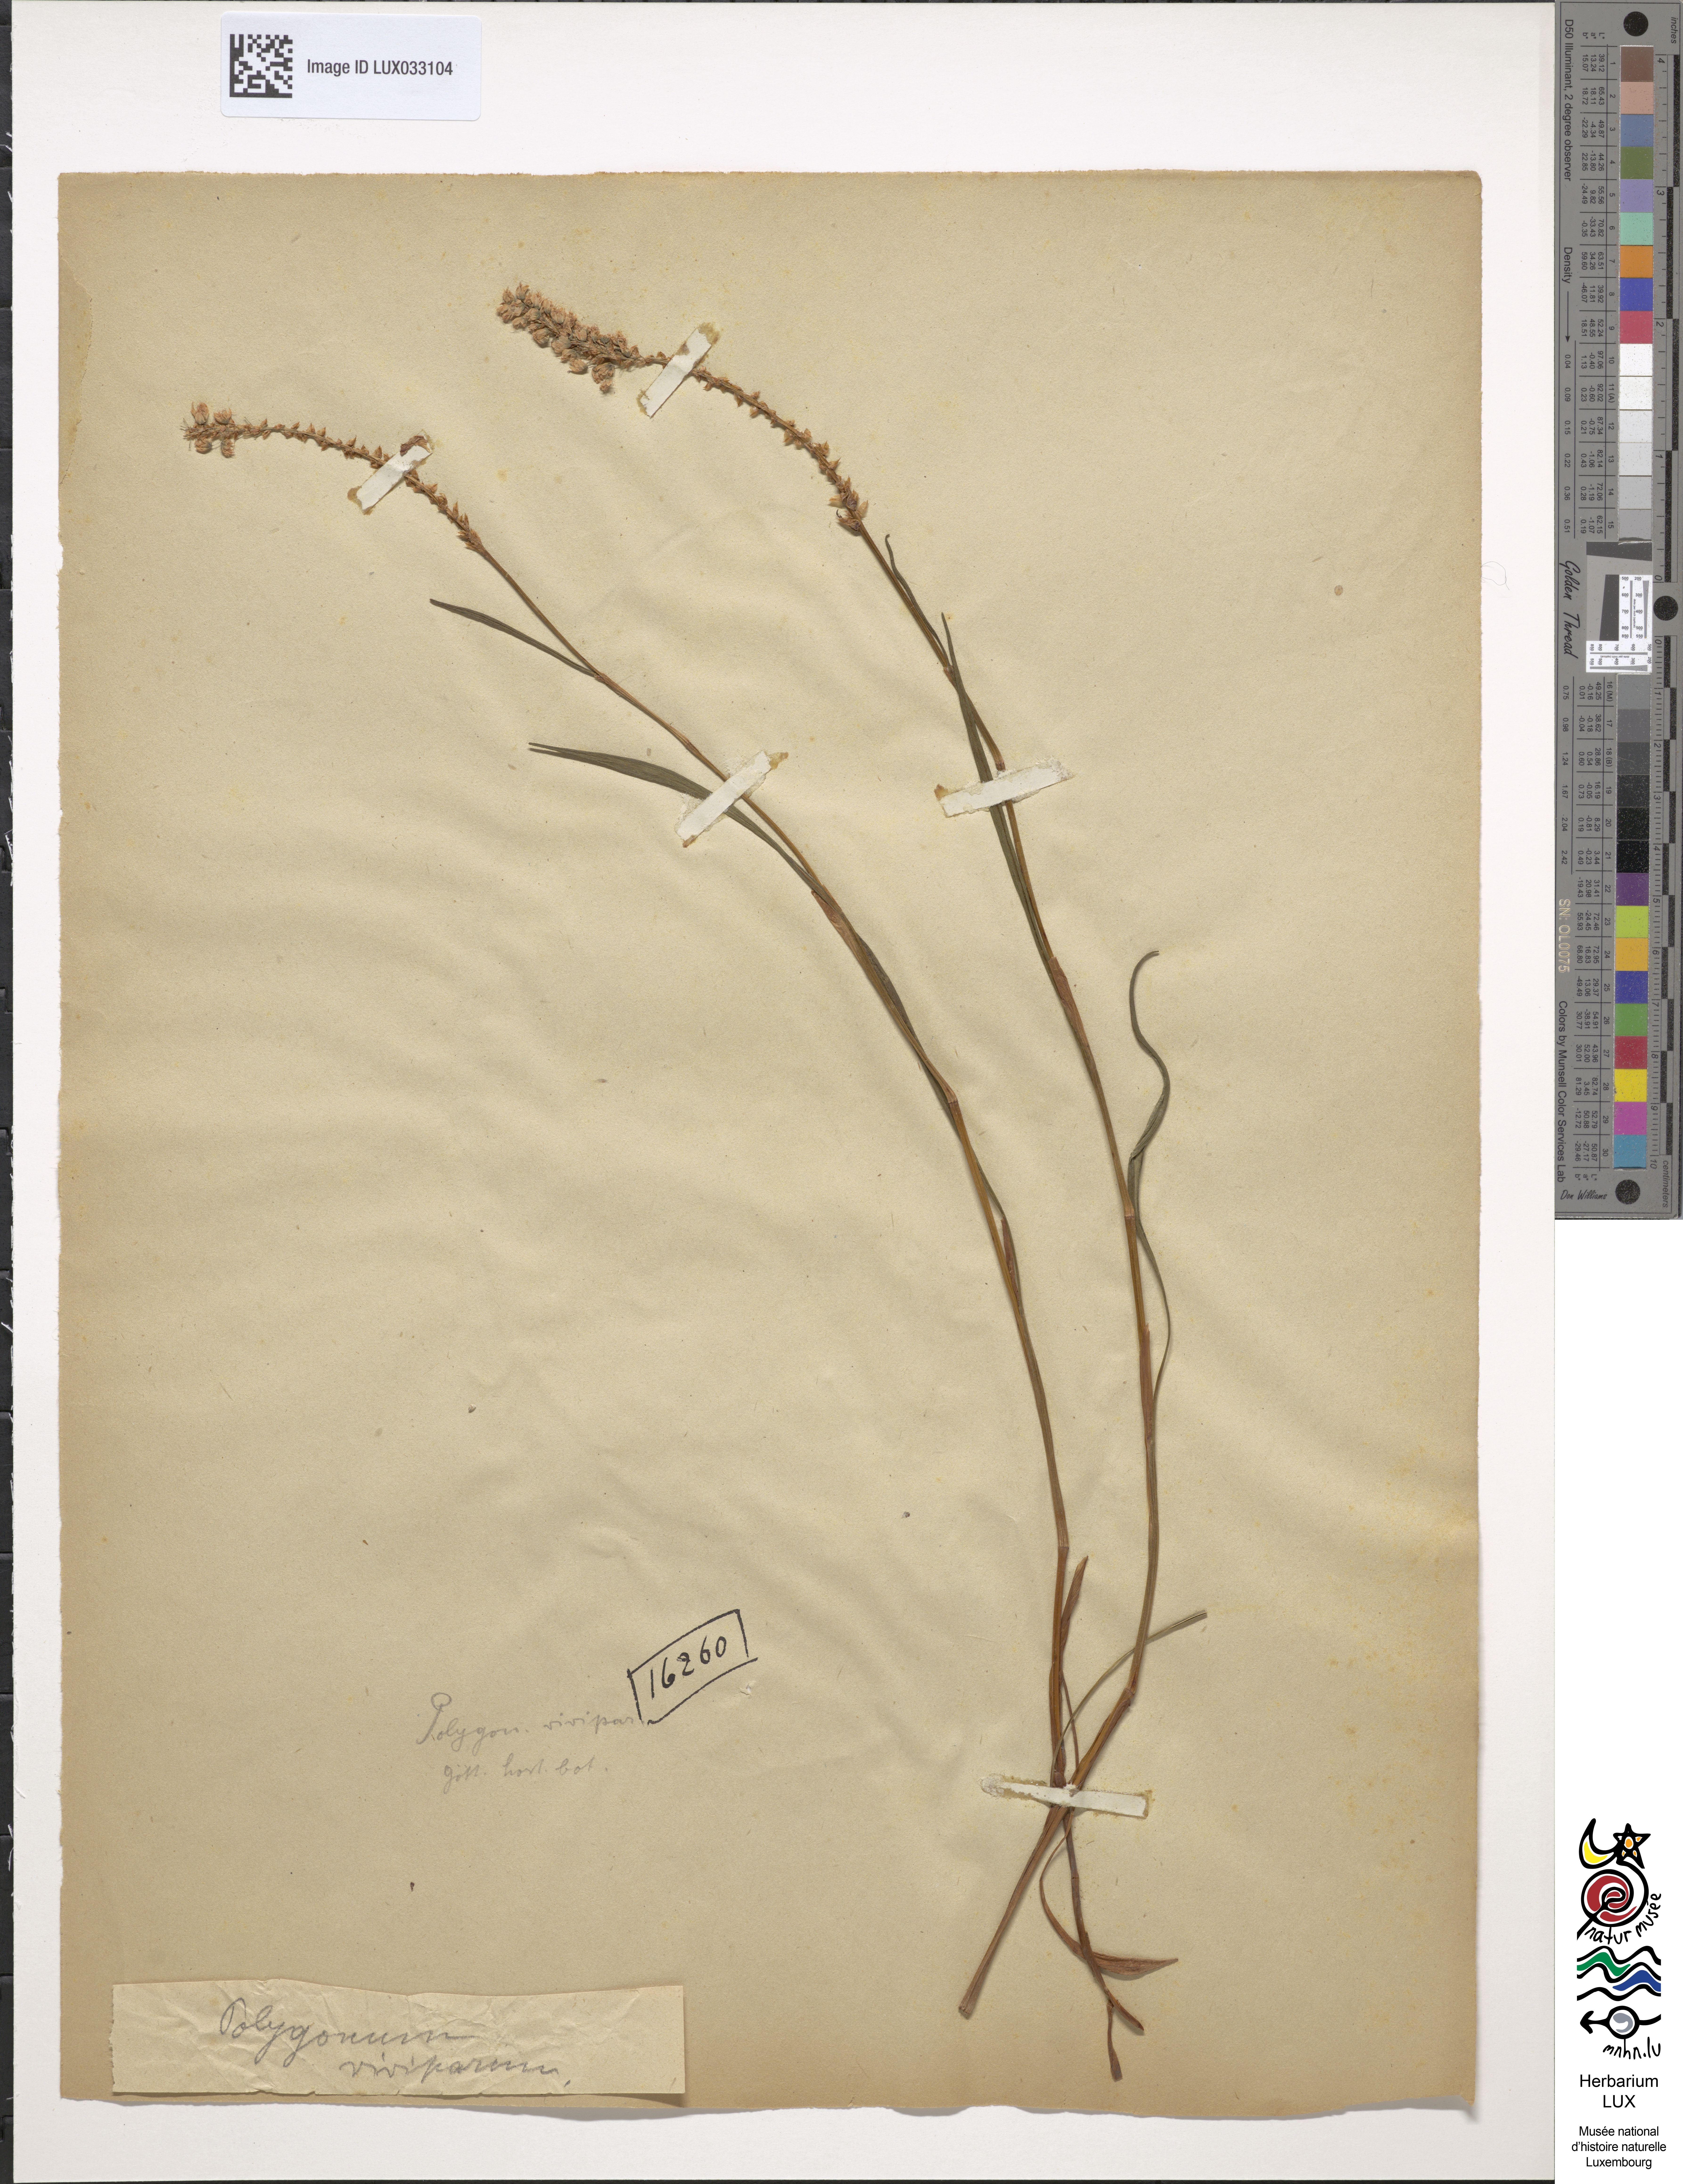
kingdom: Plantae
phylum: Tracheophyta
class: Magnoliopsida
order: Caryophyllales
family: Polygonaceae
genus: Bistorta
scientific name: Bistorta vivipara
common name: Alpine bistort
